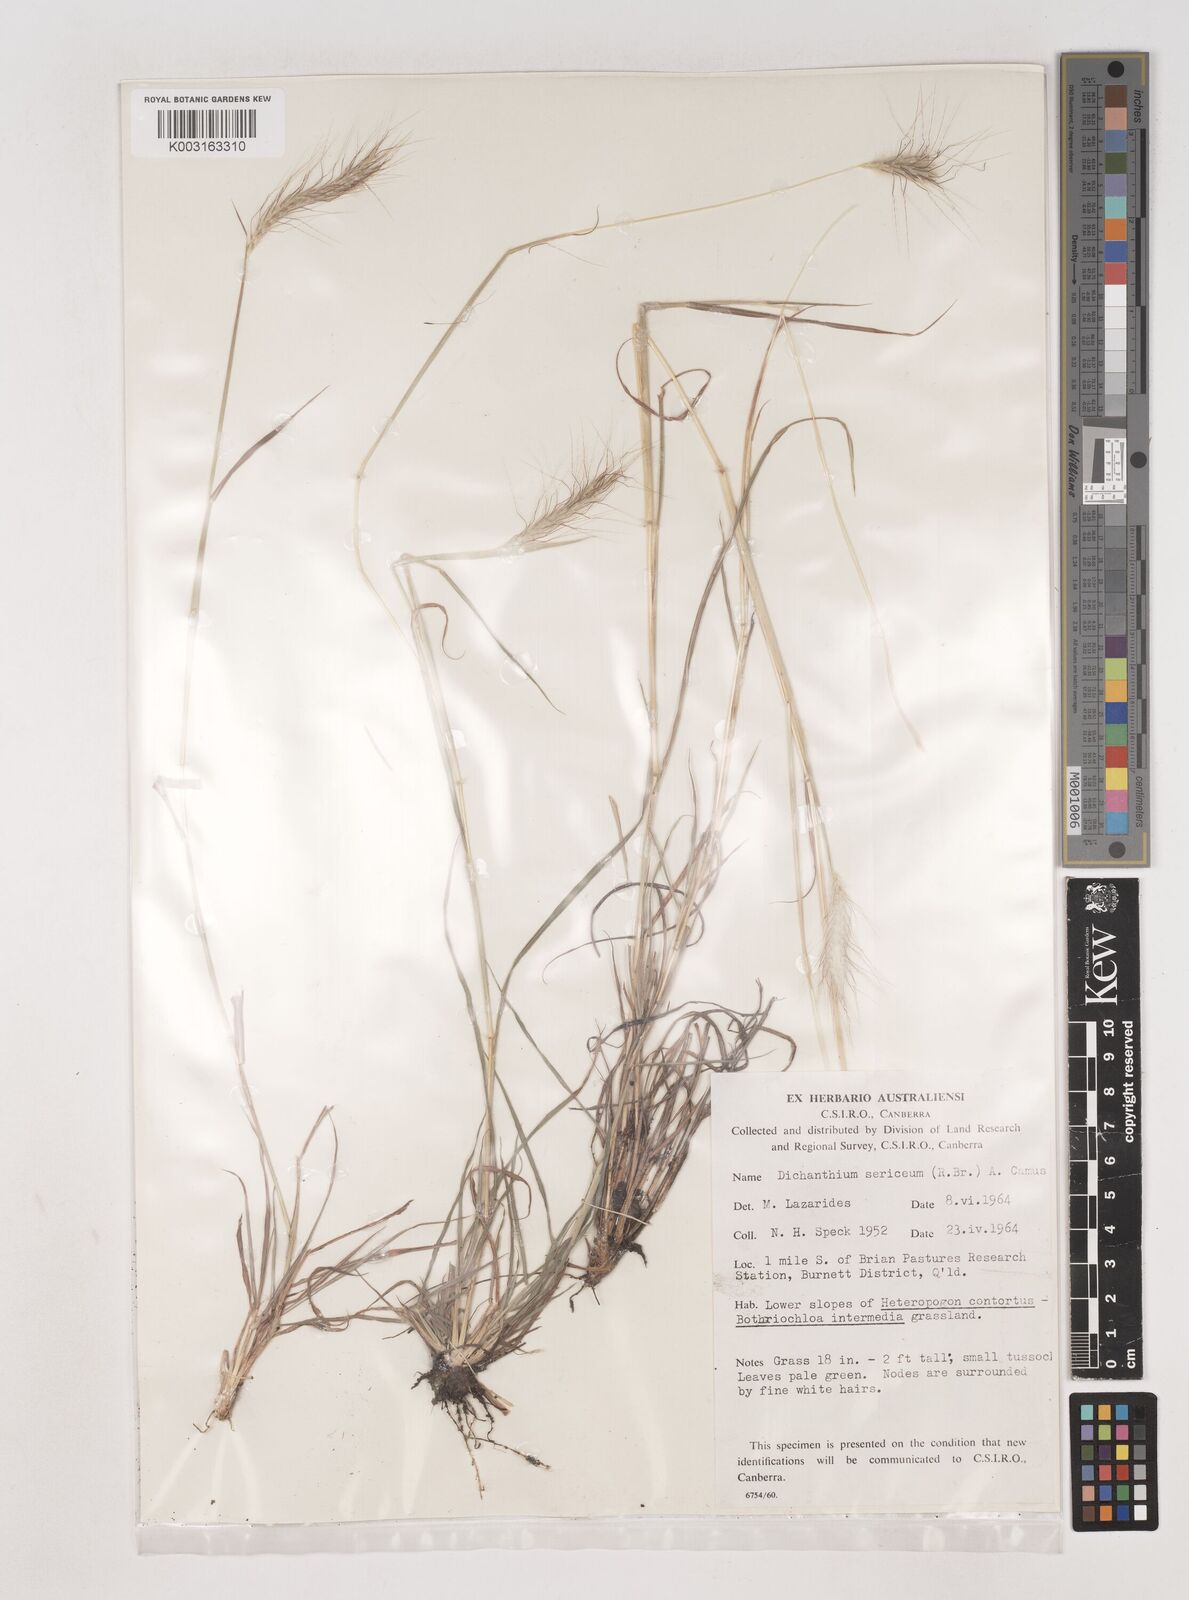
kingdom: Plantae
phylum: Tracheophyta
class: Liliopsida
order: Poales
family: Poaceae
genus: Dichanthium
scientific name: Dichanthium sericeum
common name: Silky bluestem
